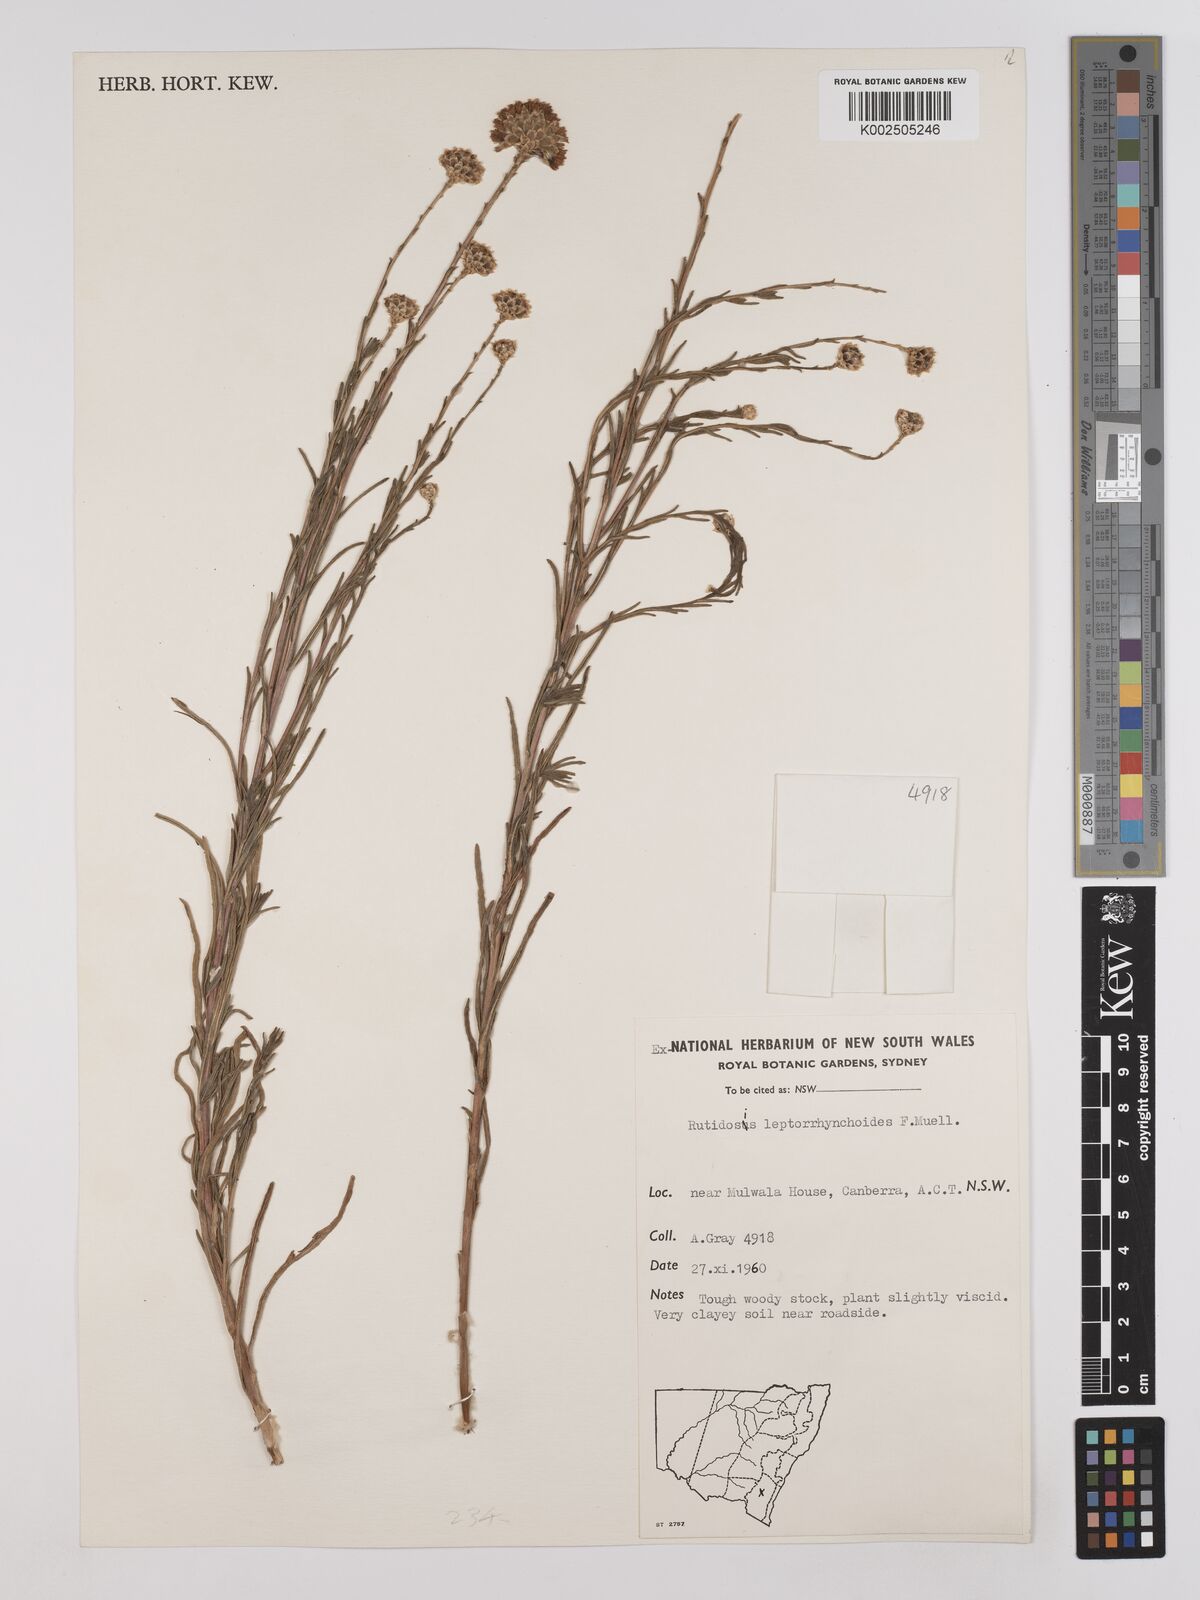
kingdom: Plantae
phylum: Tracheophyta
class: Magnoliopsida
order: Asterales
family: Asteraceae
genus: Rutidosis
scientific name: Rutidosis leptorrhynchoides
